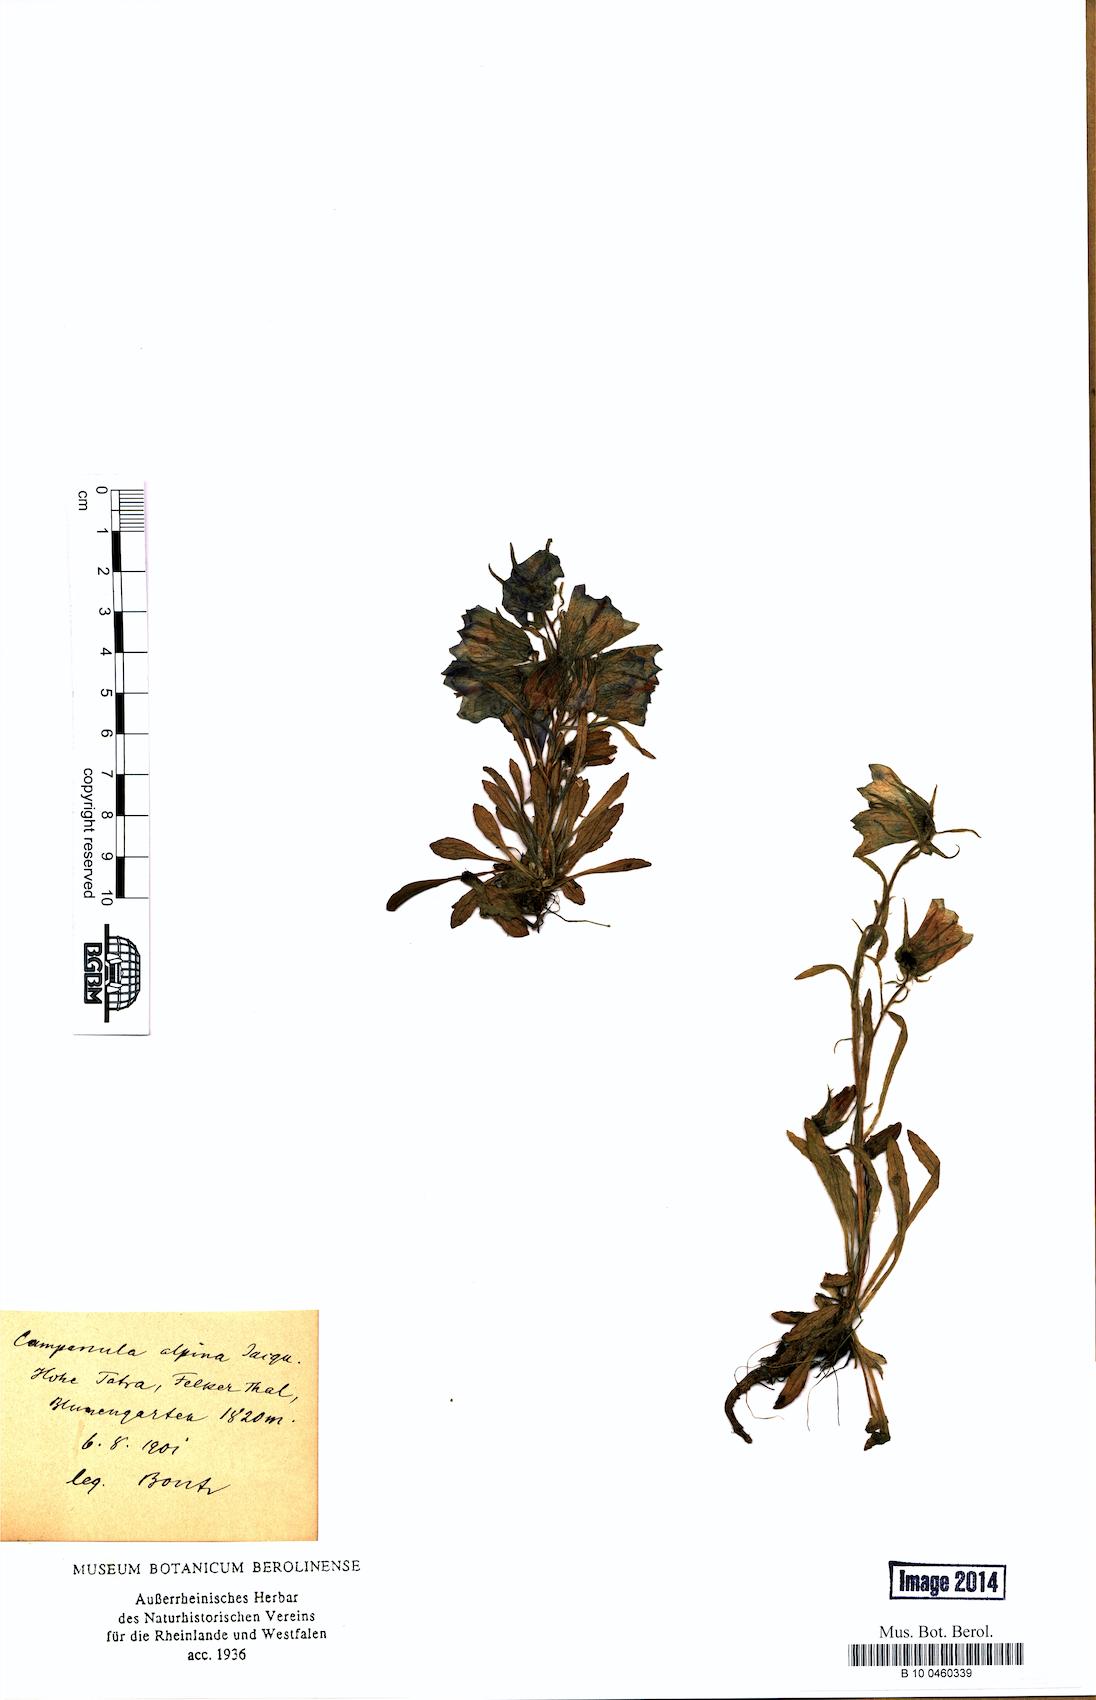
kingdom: Plantae
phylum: Tracheophyta
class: Magnoliopsida
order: Asterales
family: Campanulaceae
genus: Campanula
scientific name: Campanula alpina
